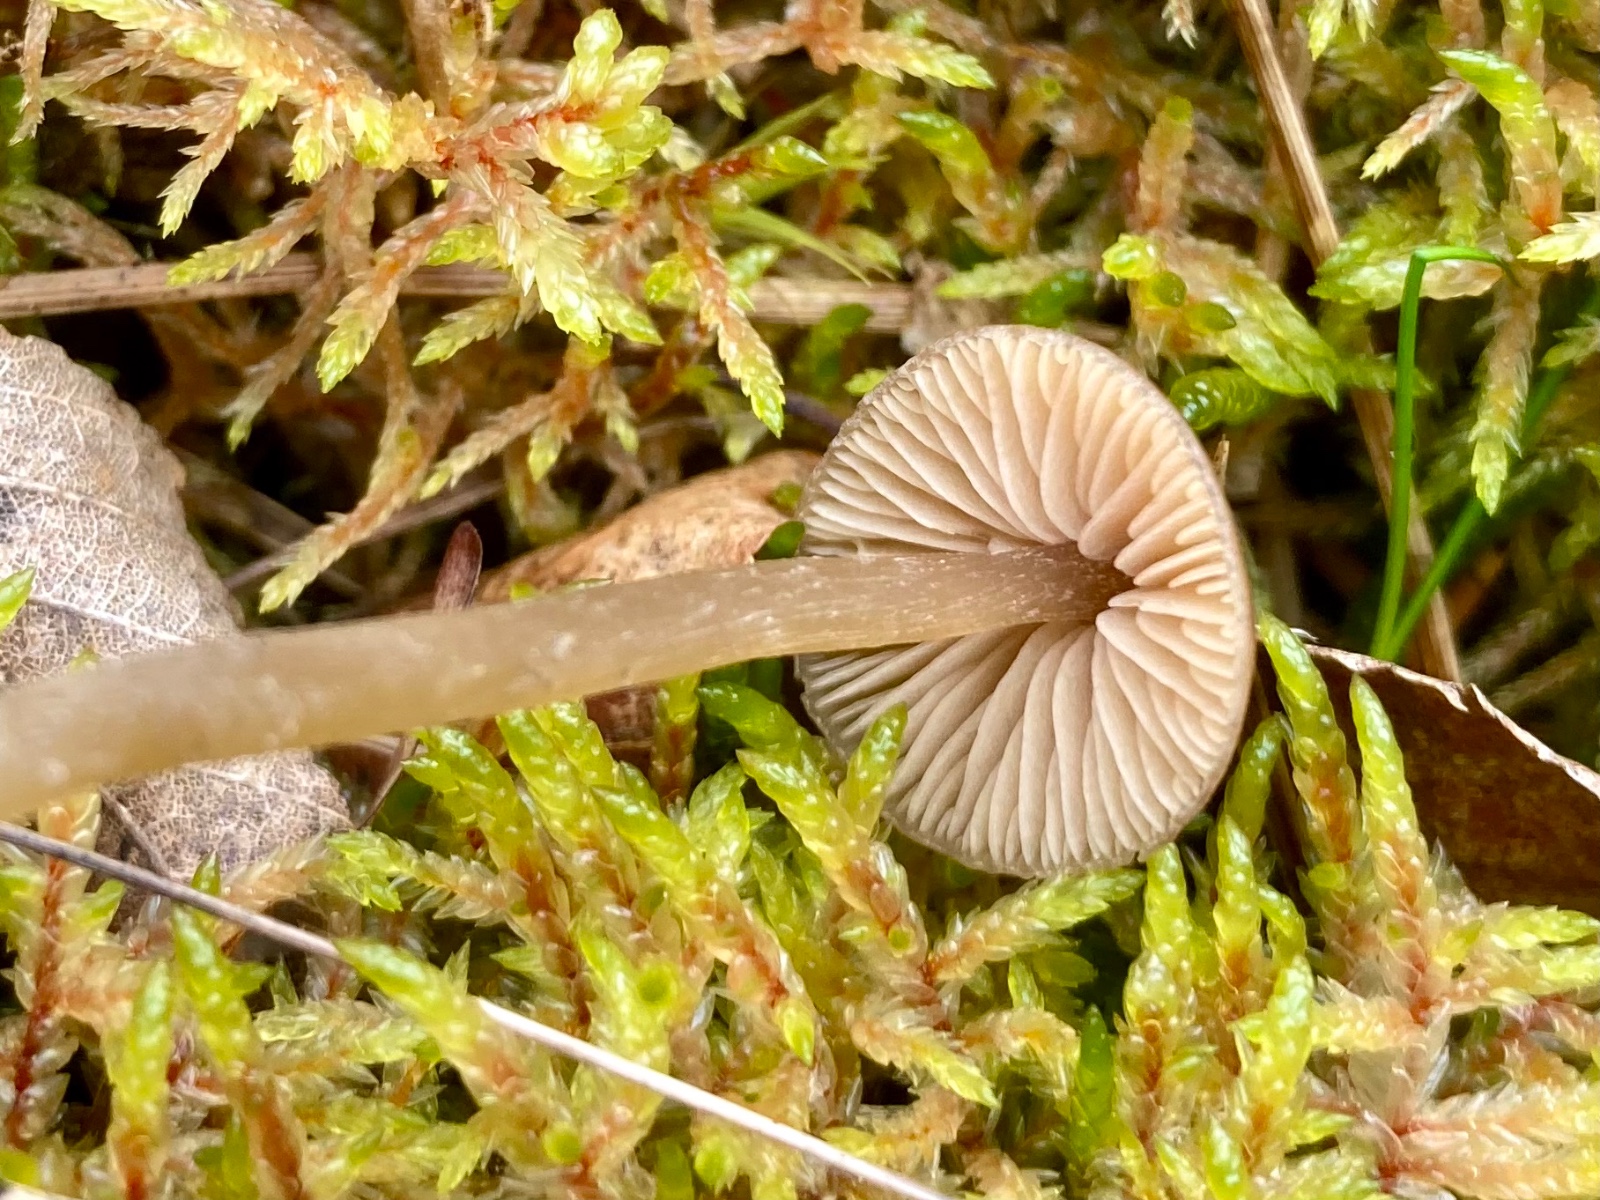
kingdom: Fungi
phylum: Basidiomycota
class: Agaricomycetes
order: Agaricales
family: Entolomataceae
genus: Entoloma
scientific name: Entoloma
